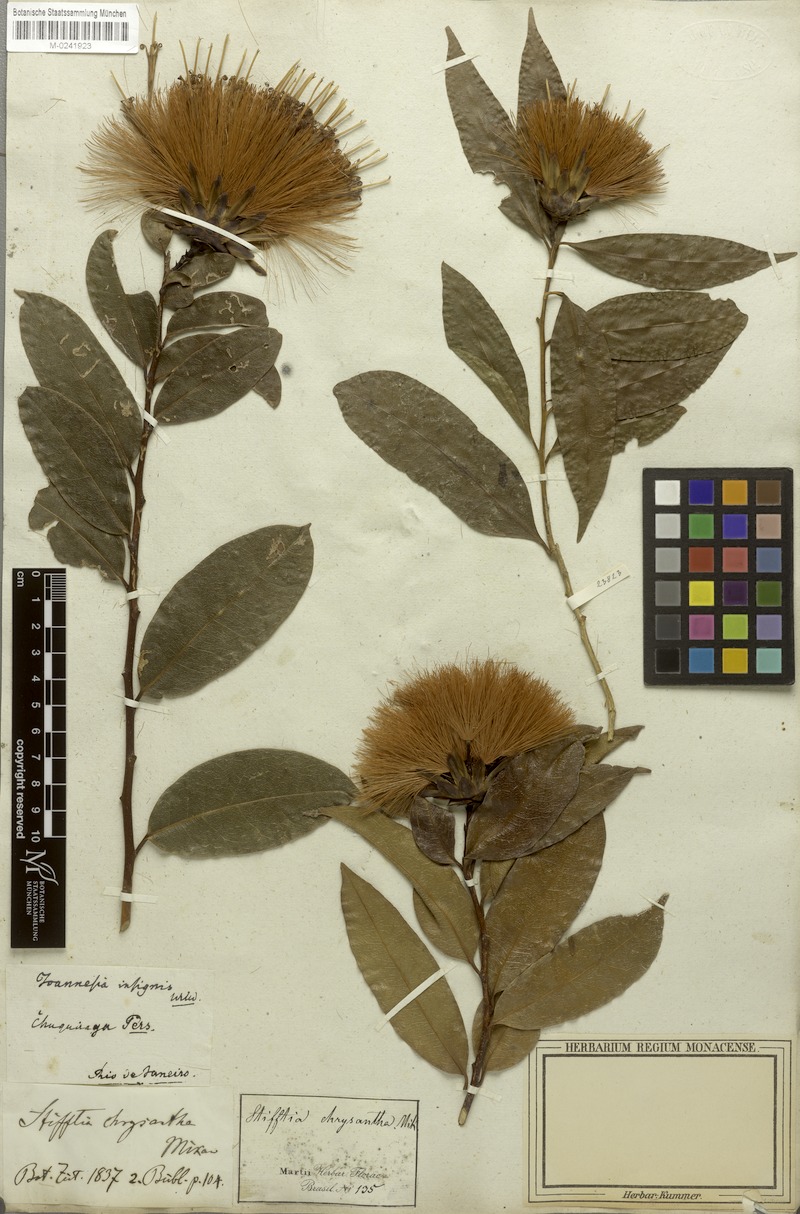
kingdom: Plantae
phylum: Tracheophyta
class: Magnoliopsida
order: Asterales
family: Asteraceae
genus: Stifftia
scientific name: Stifftia chrysantha
